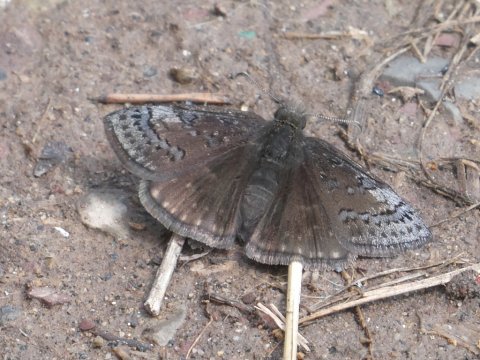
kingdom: Animalia
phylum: Arthropoda
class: Insecta
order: Lepidoptera
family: Hesperiidae
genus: Erynnis
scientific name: Erynnis brizo
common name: Sleepy Duskywing
